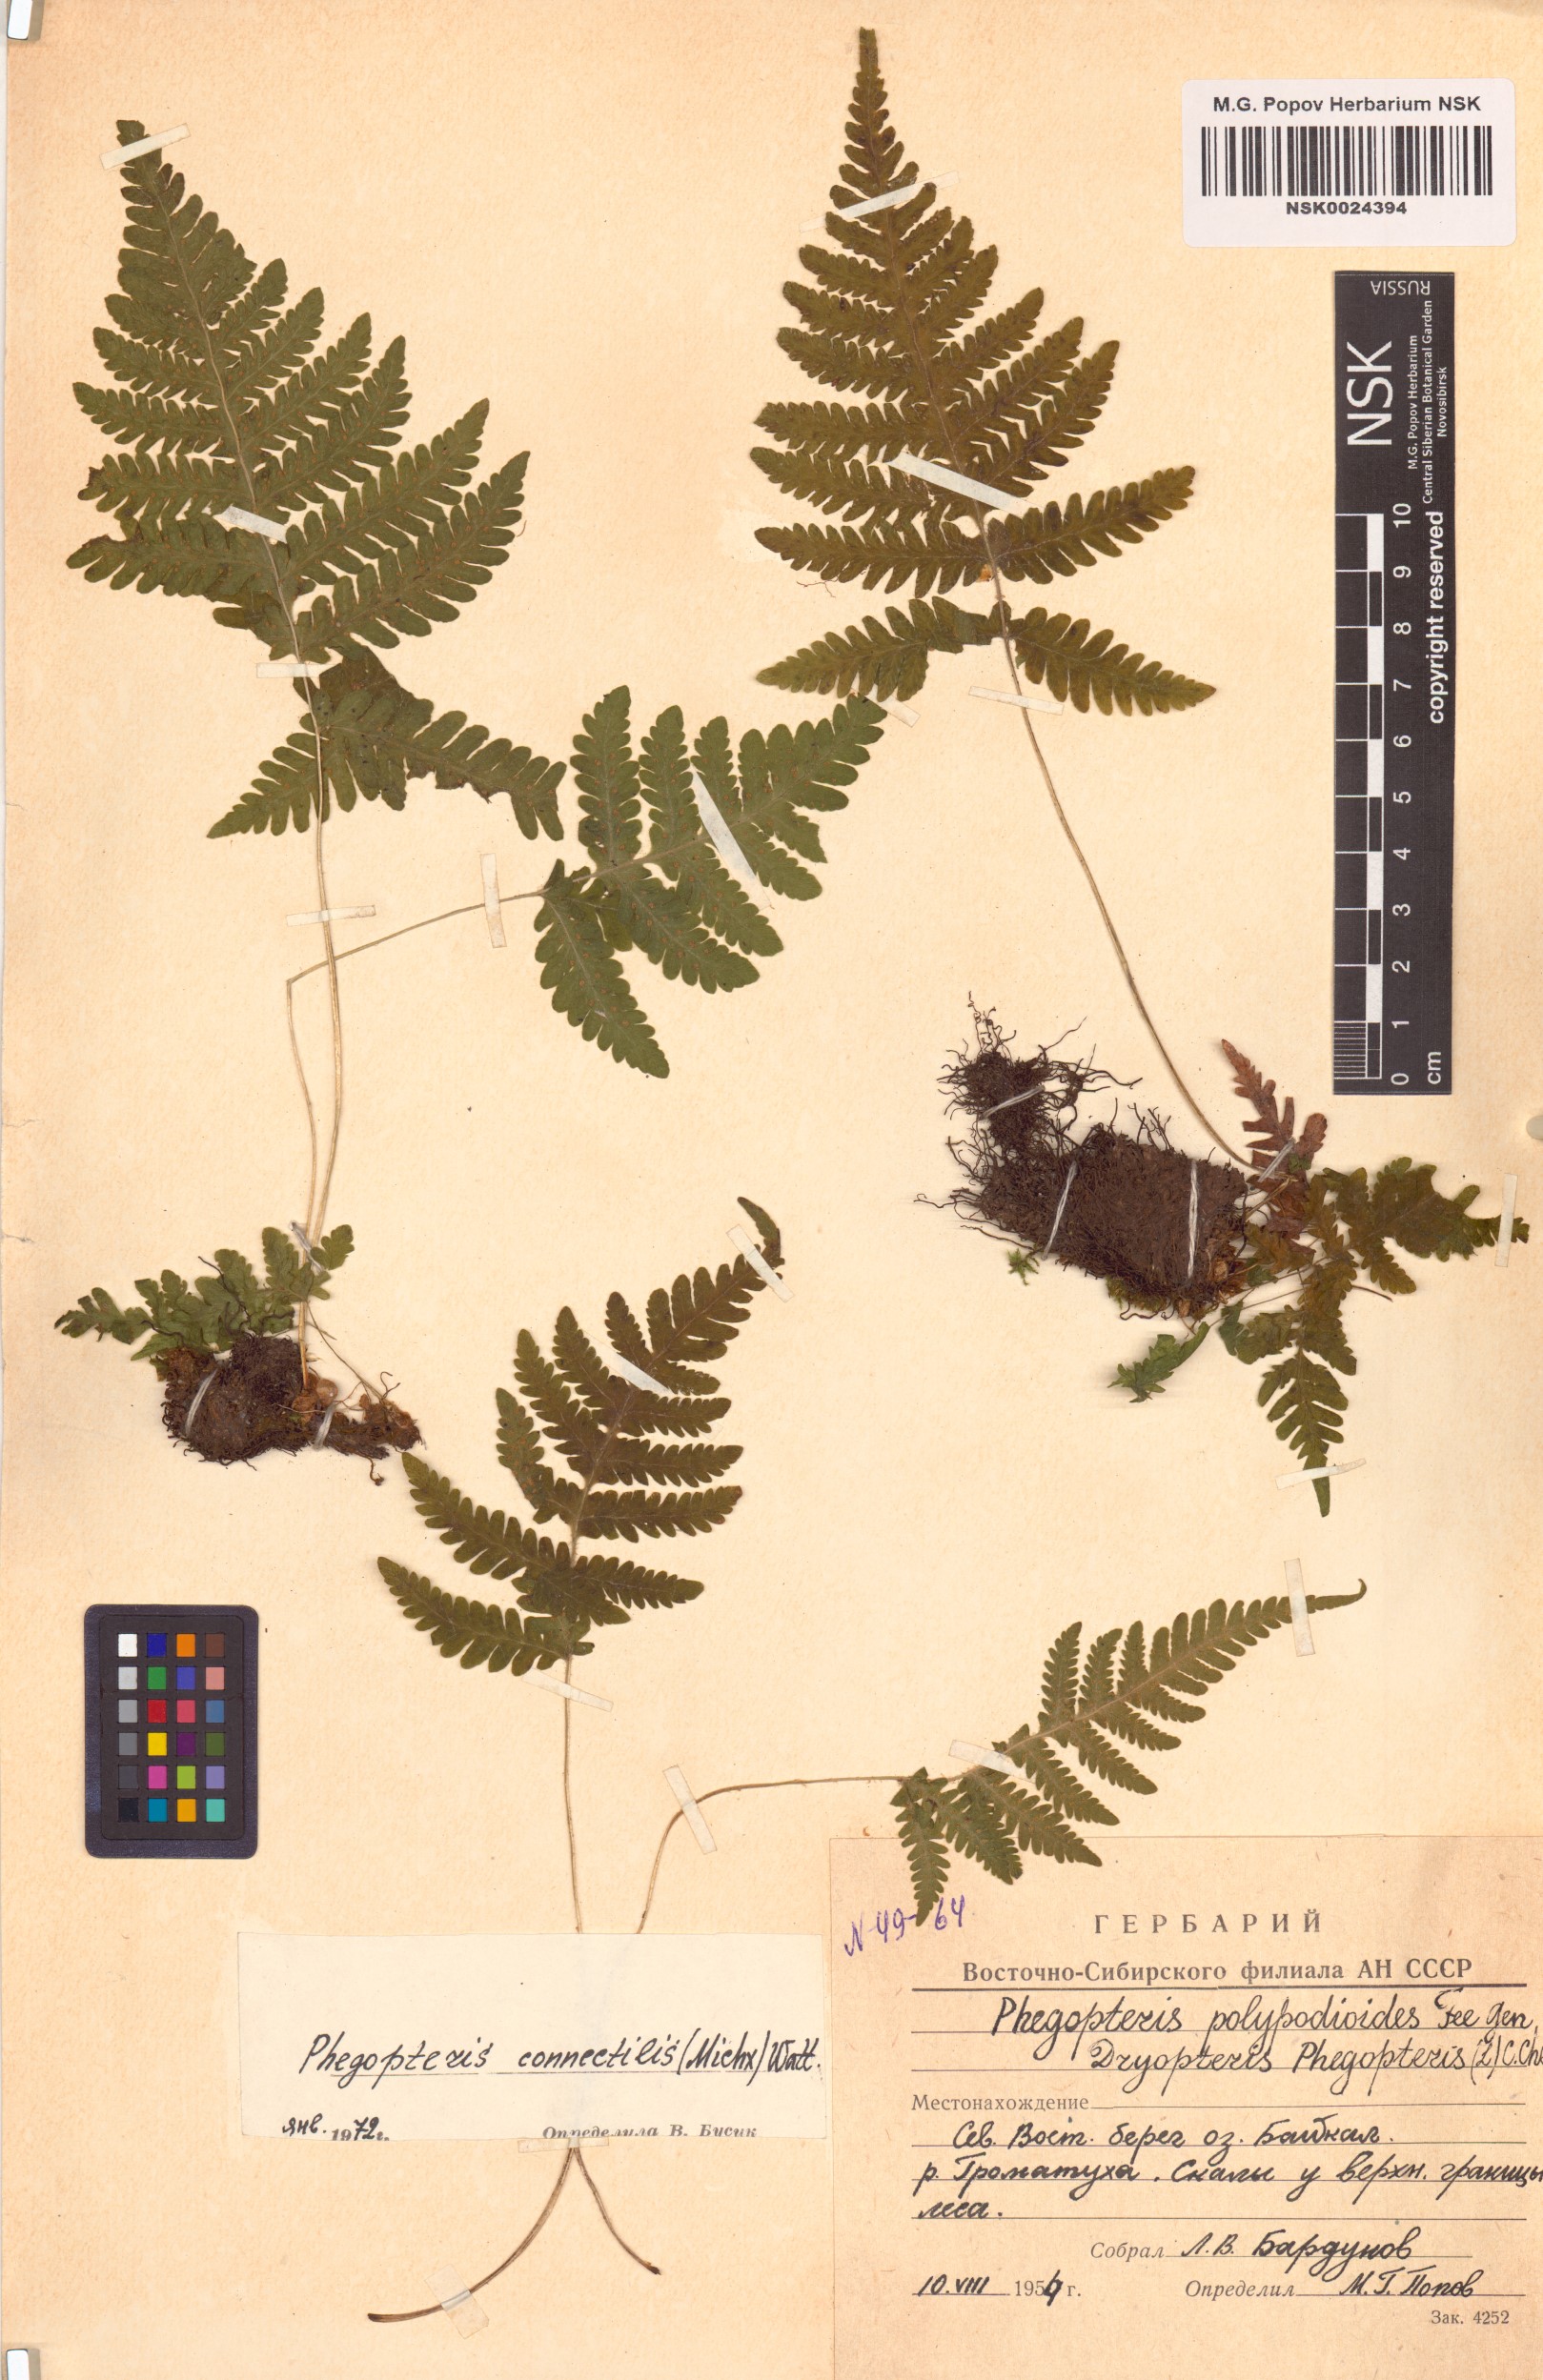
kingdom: Plantae
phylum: Tracheophyta
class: Polypodiopsida
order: Polypodiales
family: Thelypteridaceae
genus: Phegopteris
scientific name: Phegopteris connectilis
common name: Beech fern
